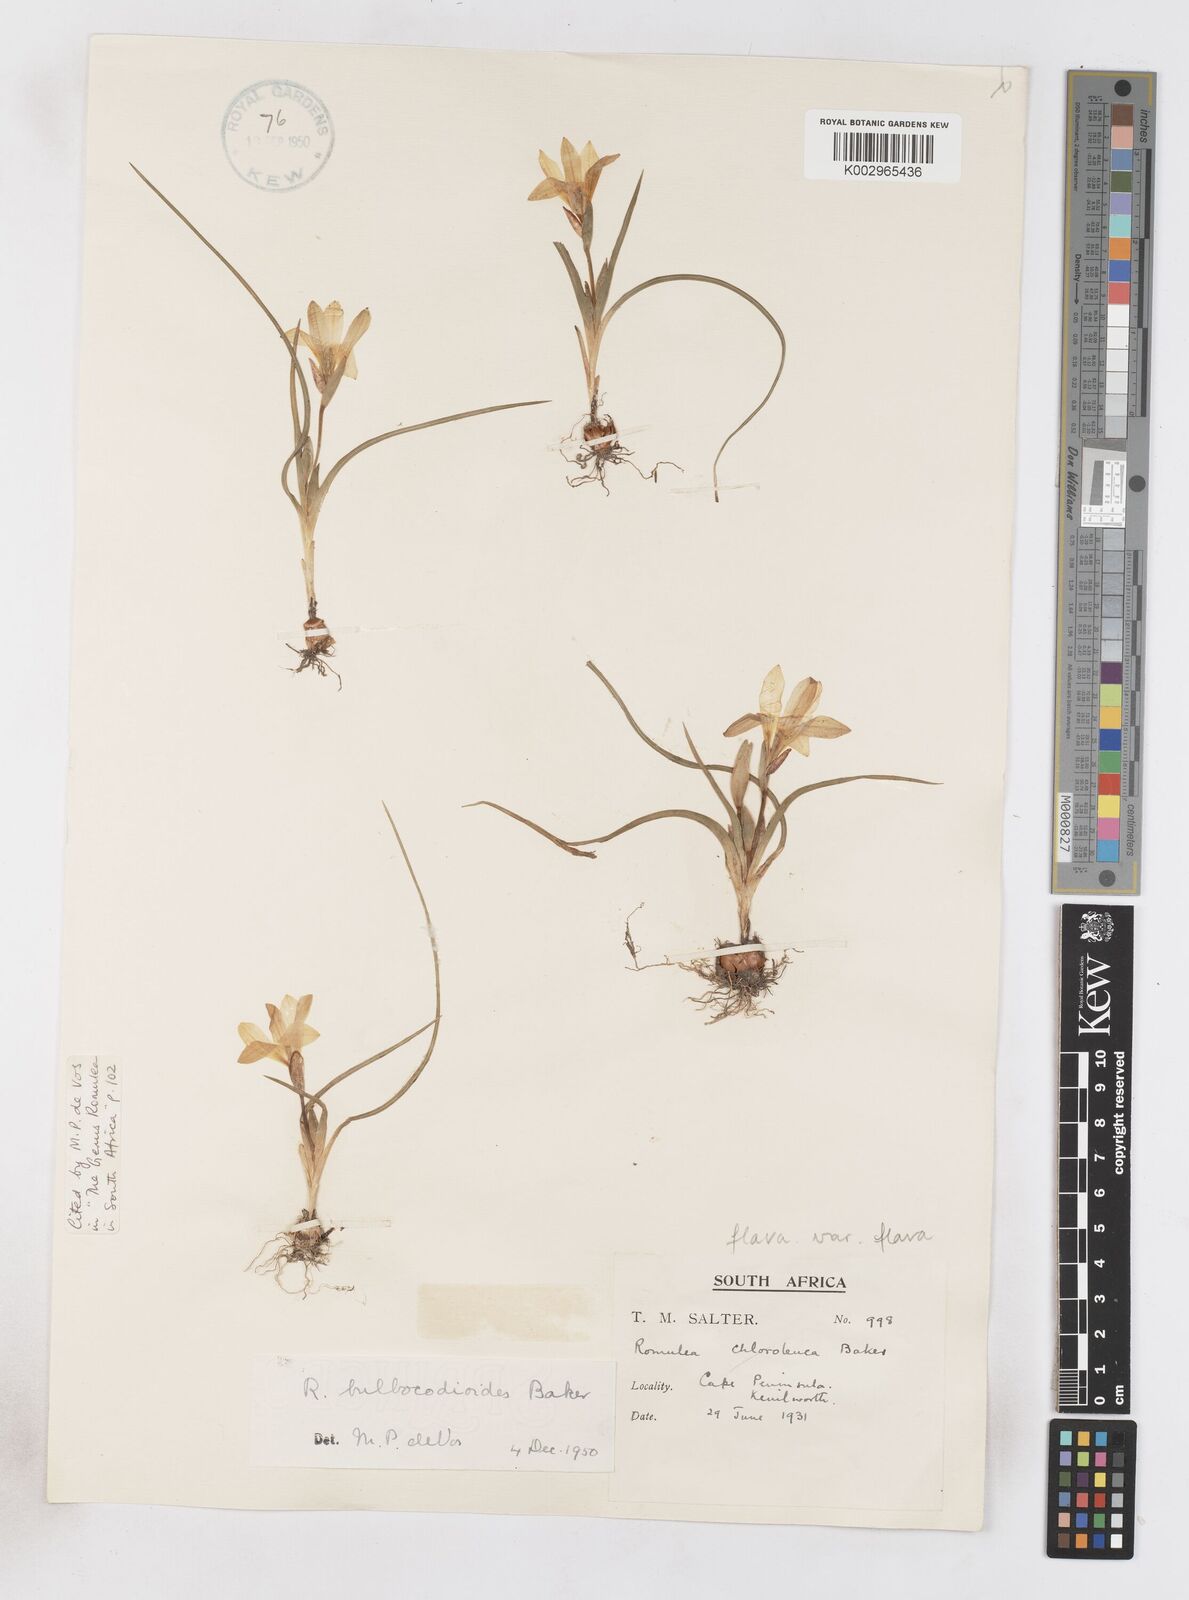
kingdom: Plantae
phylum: Tracheophyta
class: Liliopsida
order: Asparagales
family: Iridaceae
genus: Romulea
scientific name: Romulea flava
